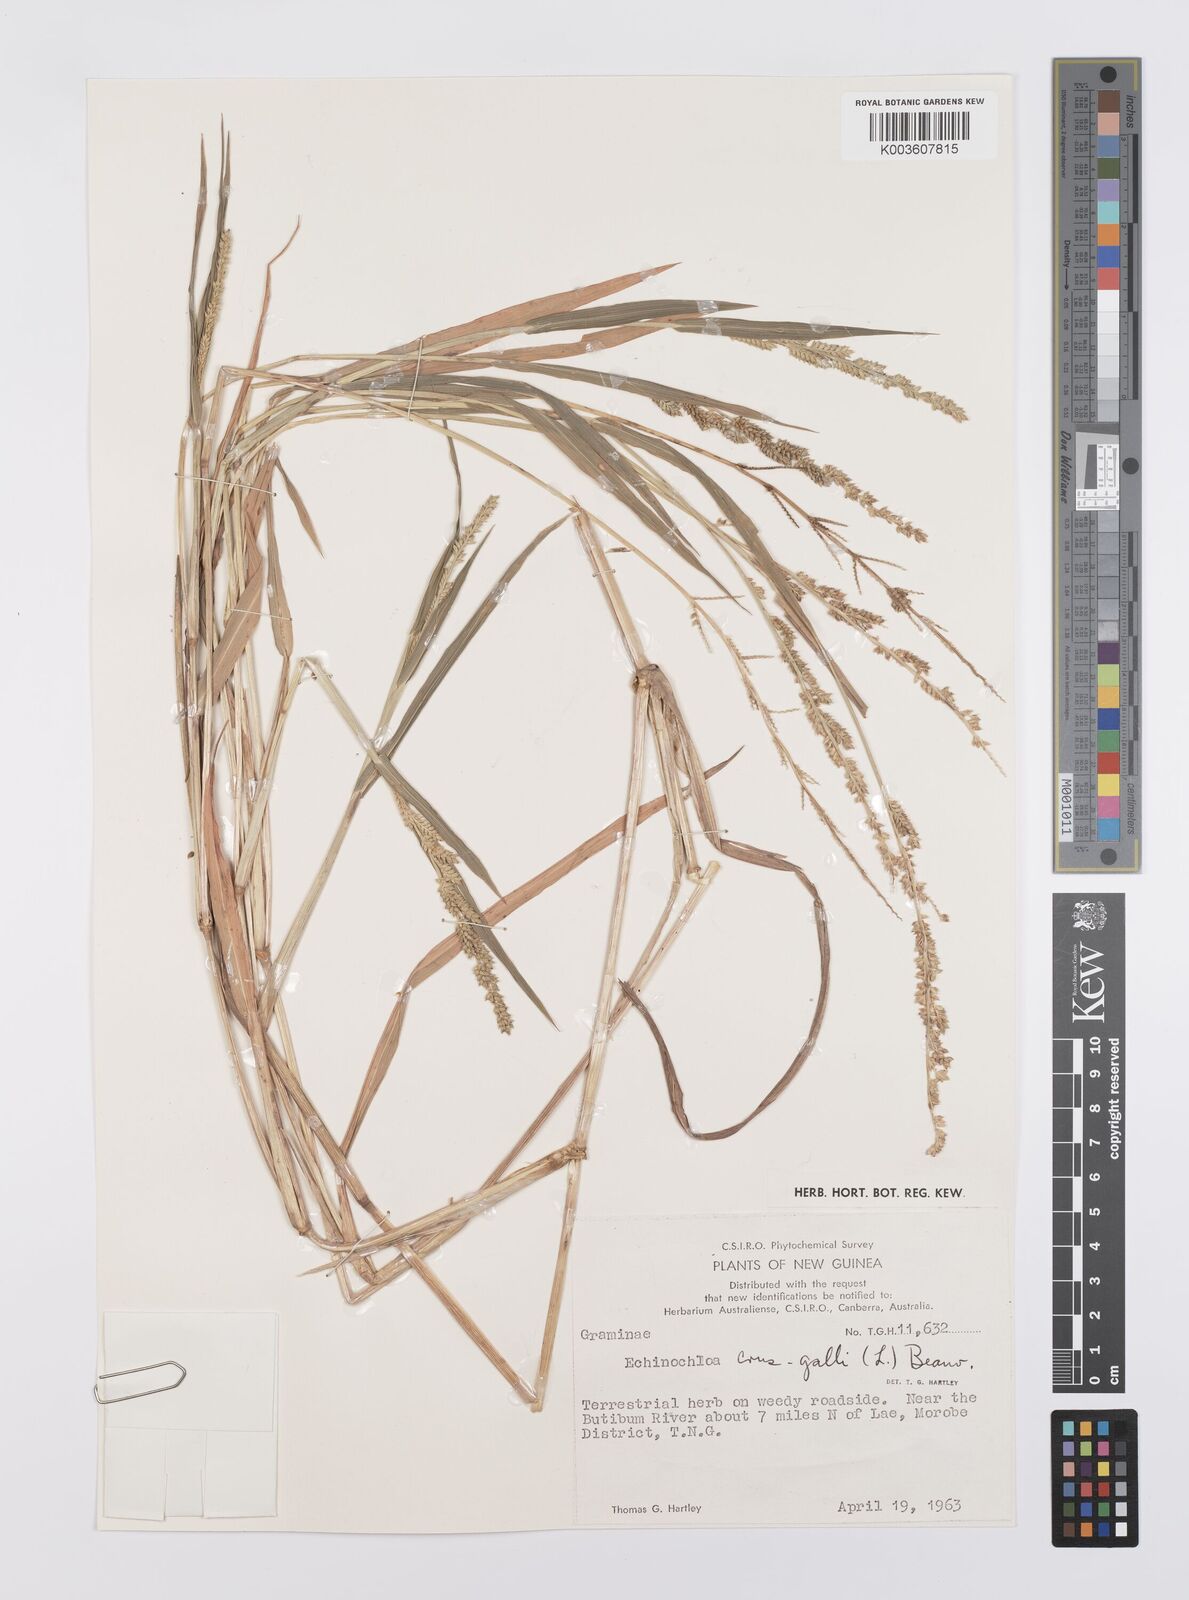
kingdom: Plantae
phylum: Tracheophyta
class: Liliopsida
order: Poales
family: Poaceae
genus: Echinochloa
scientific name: Echinochloa colonum
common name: Jungle rice
